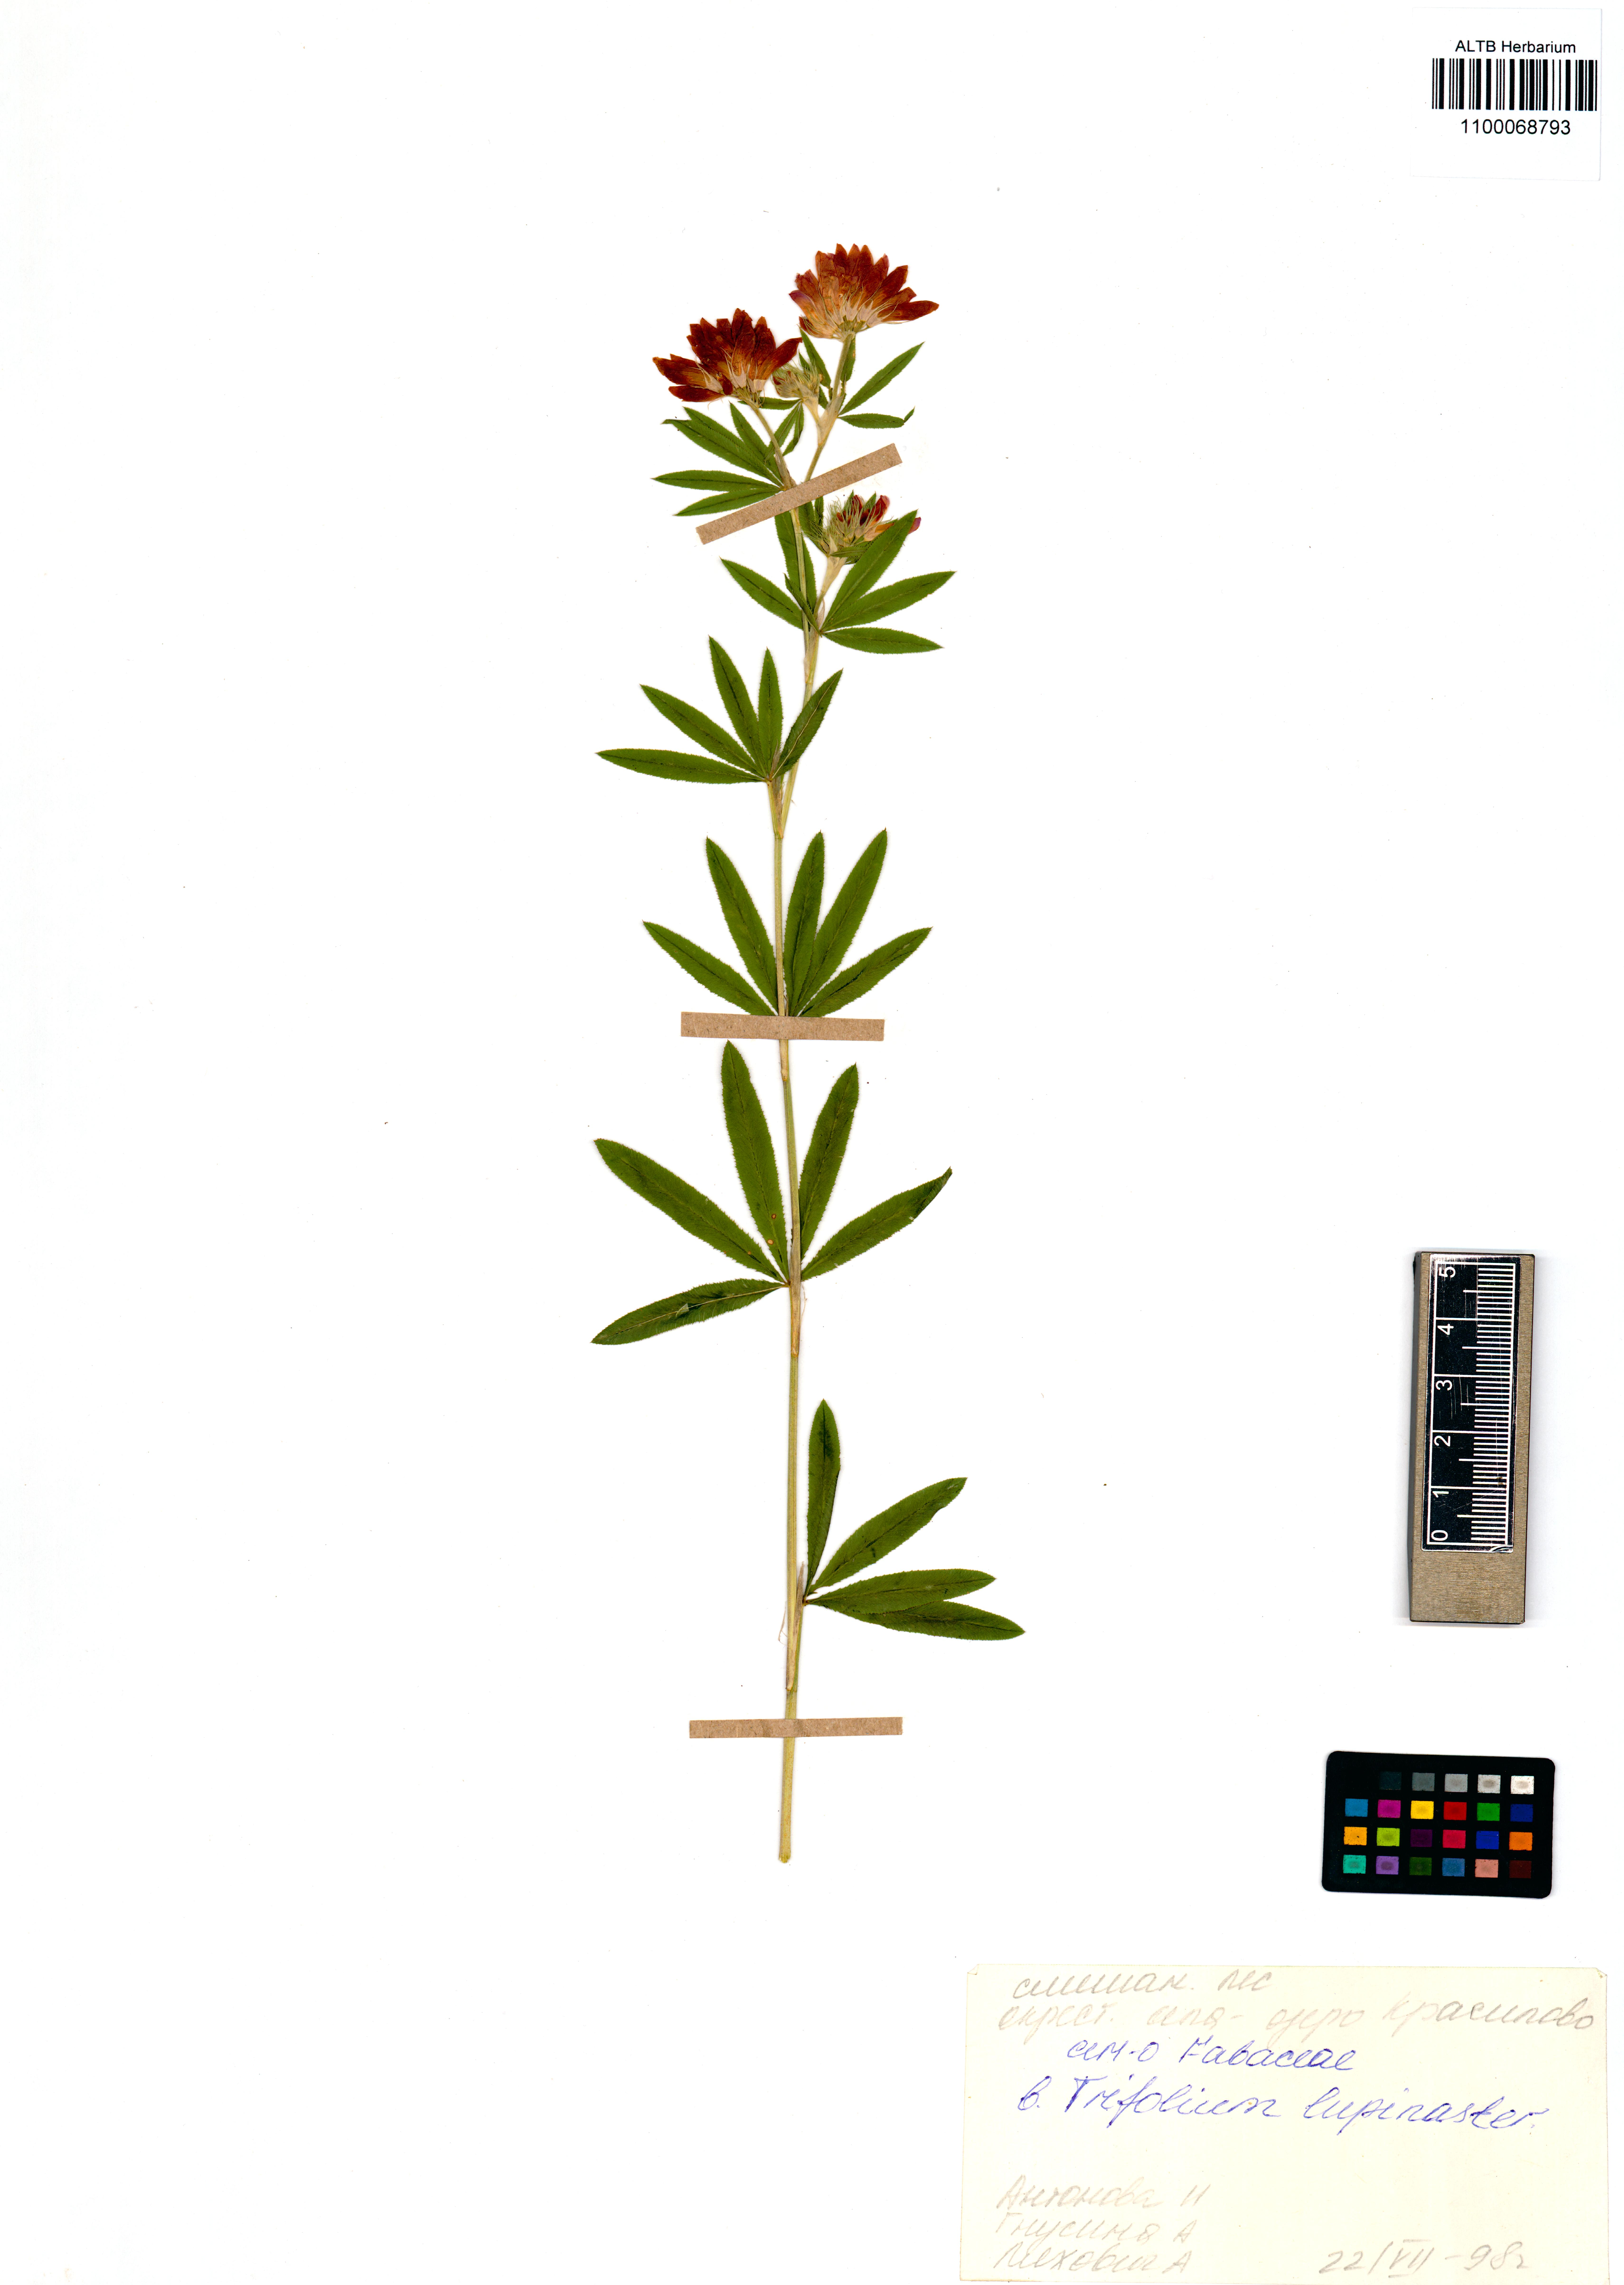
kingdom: Plantae
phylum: Tracheophyta
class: Magnoliopsida
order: Fabales
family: Fabaceae
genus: Trifolium
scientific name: Trifolium lupinaster
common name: Lupine clover
